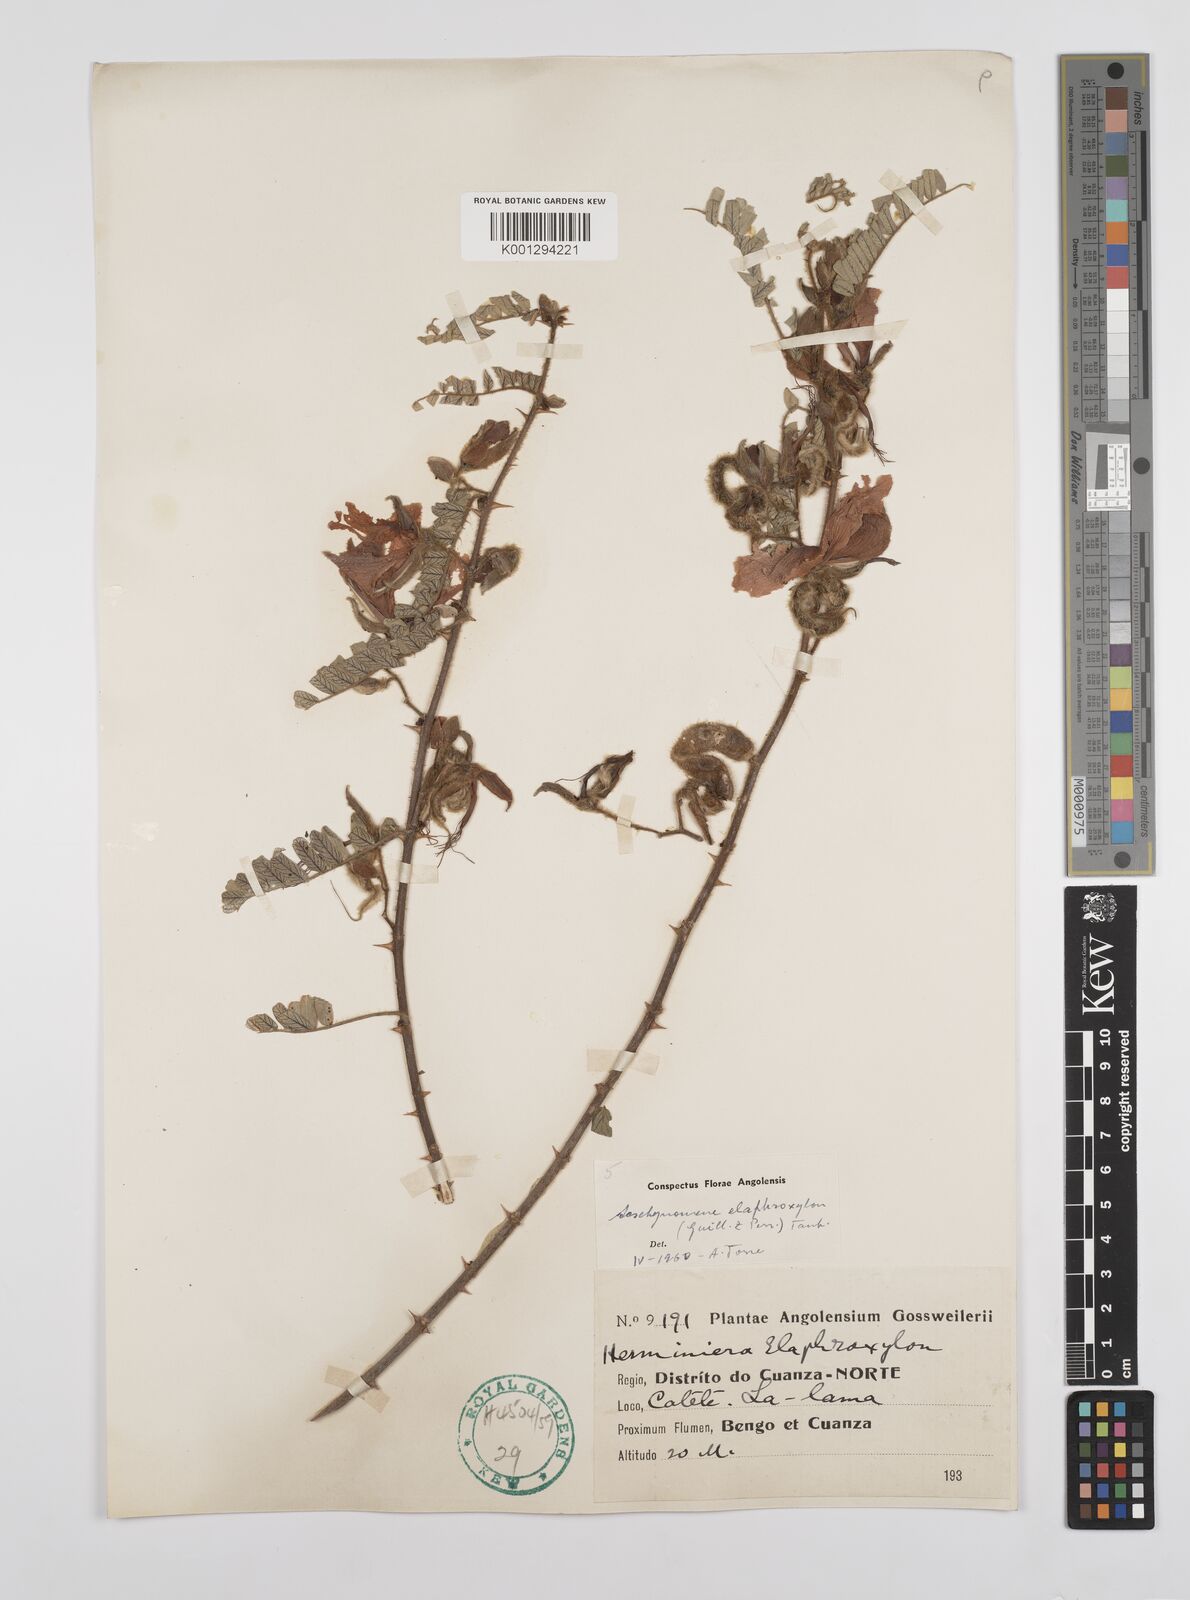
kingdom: Plantae
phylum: Tracheophyta
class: Magnoliopsida
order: Fabales
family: Fabaceae
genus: Aeschynomene
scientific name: Aeschynomene elaphroxylon
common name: Ambatch
